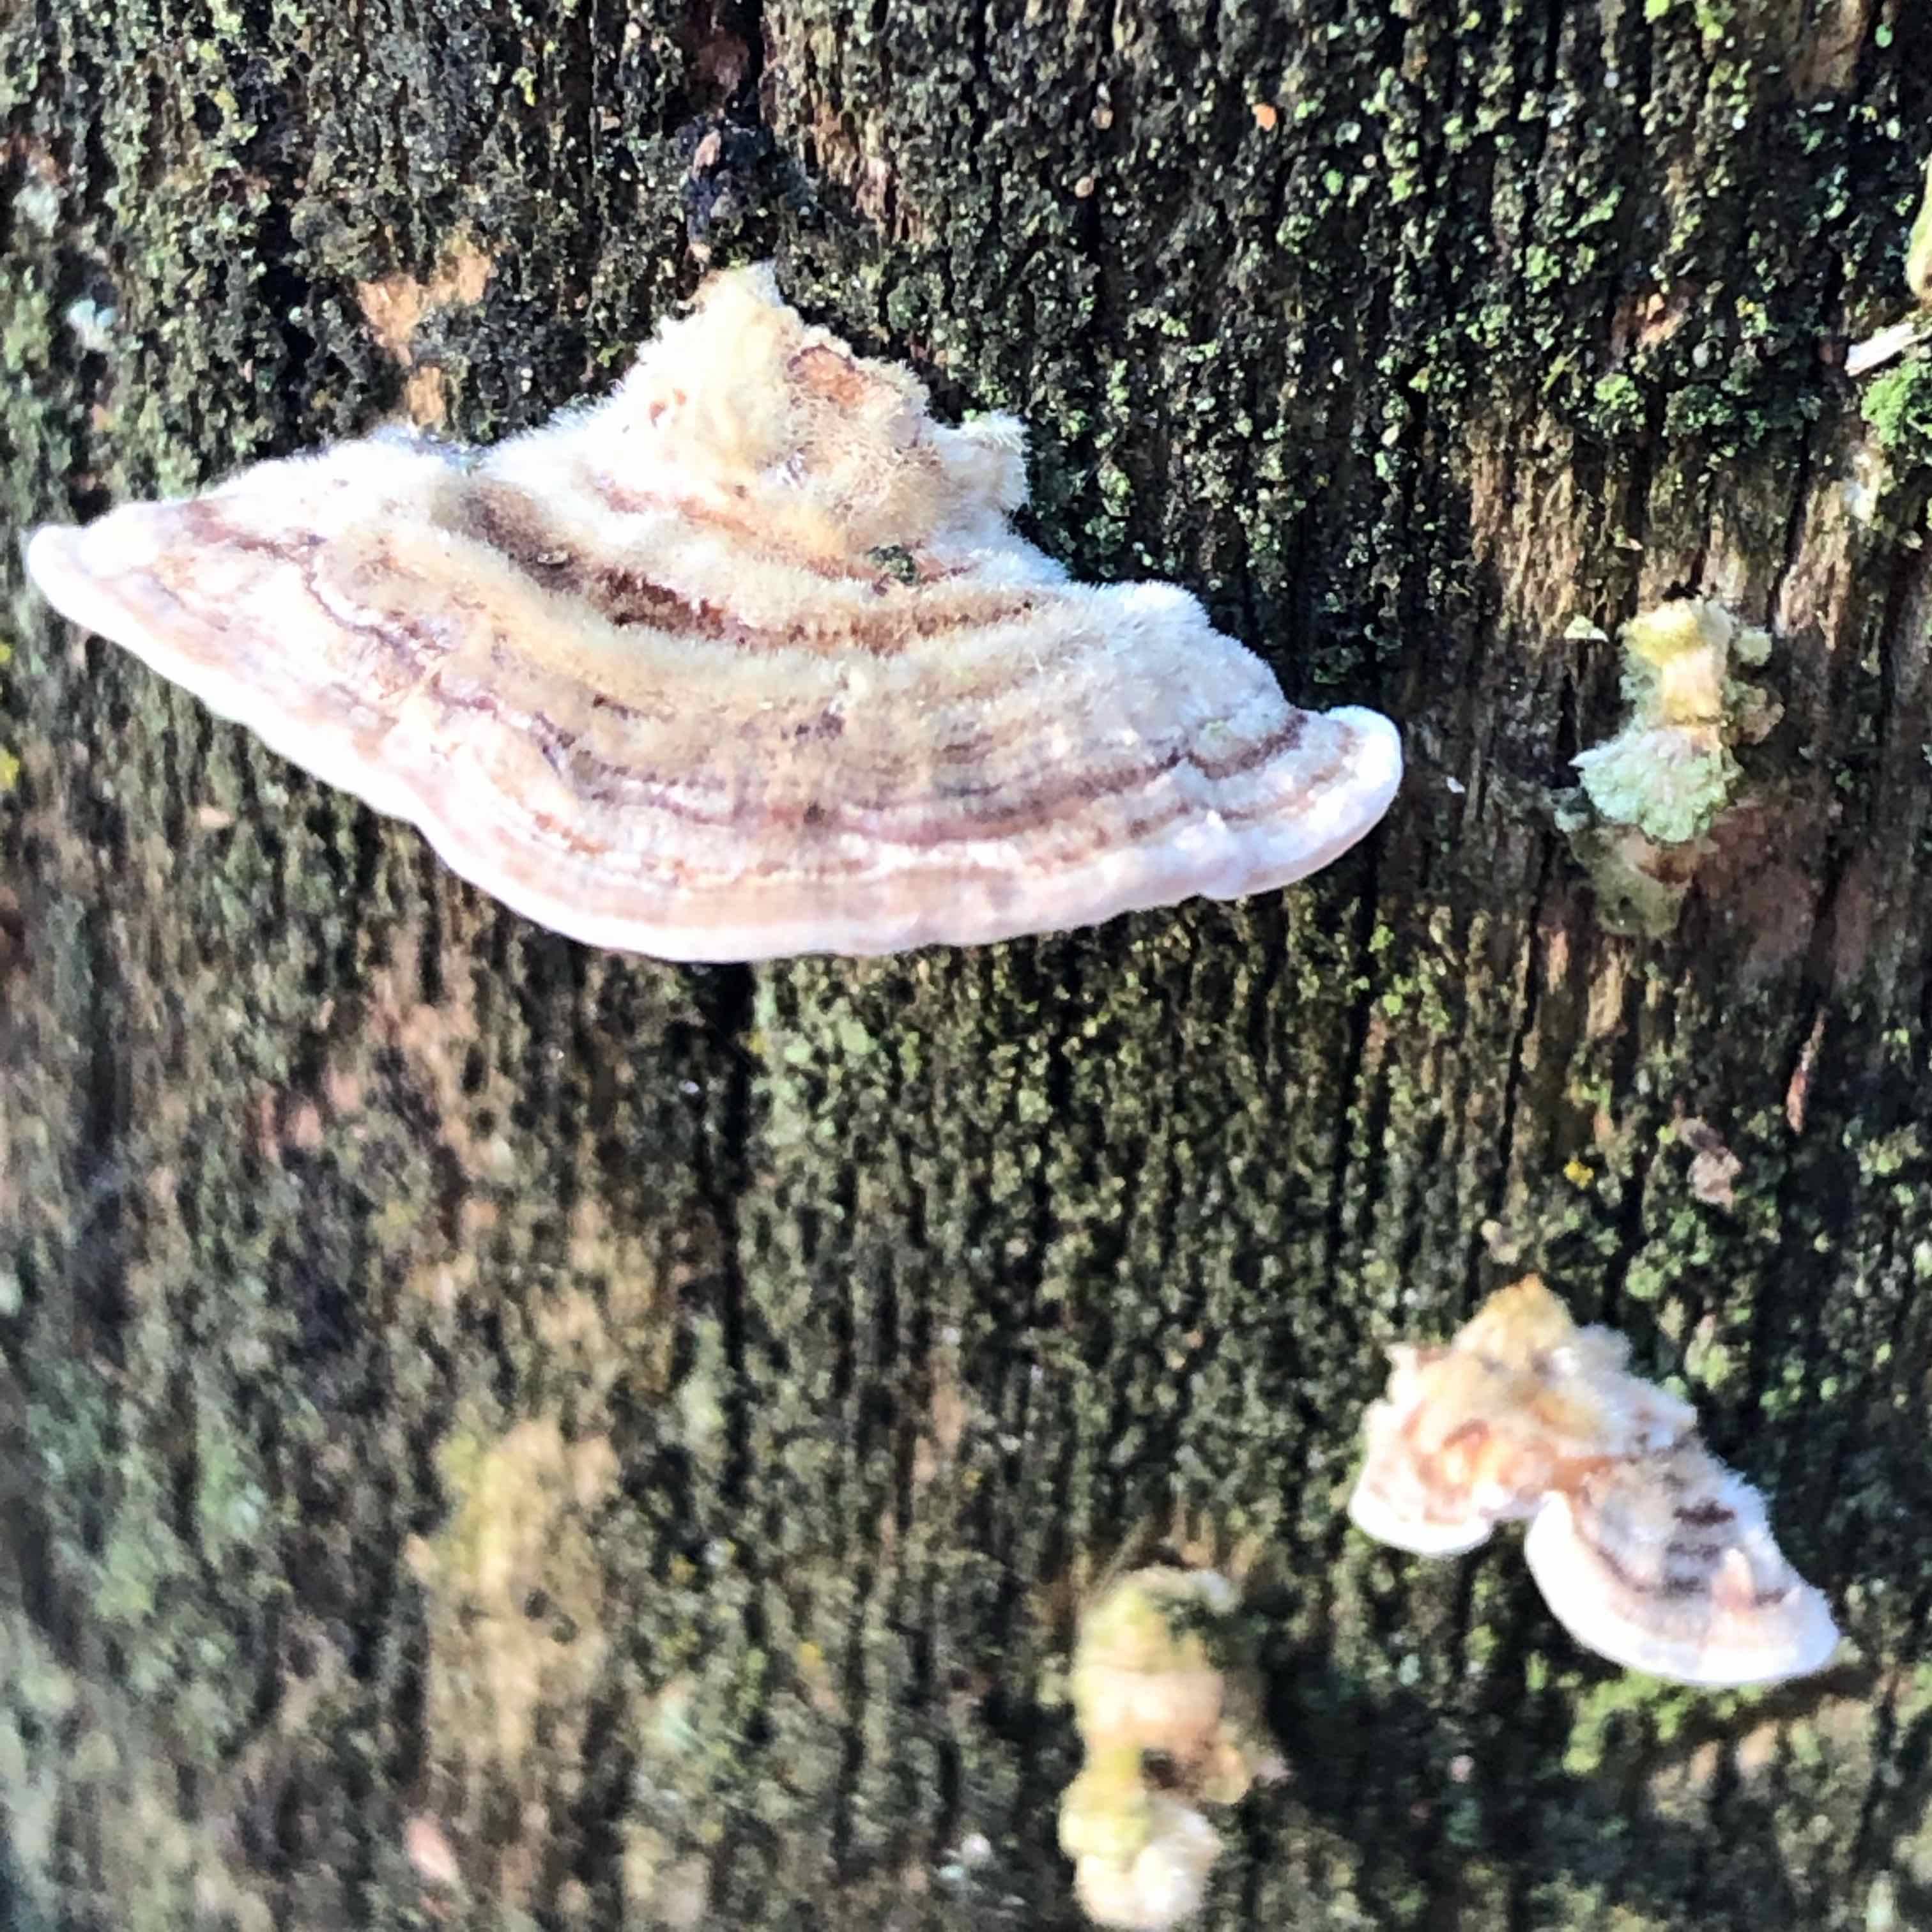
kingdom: Fungi
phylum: Basidiomycota
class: Agaricomycetes
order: Polyporales
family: Polyporaceae
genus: Trametes
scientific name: Trametes hirsuta
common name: håret læderporesvamp
